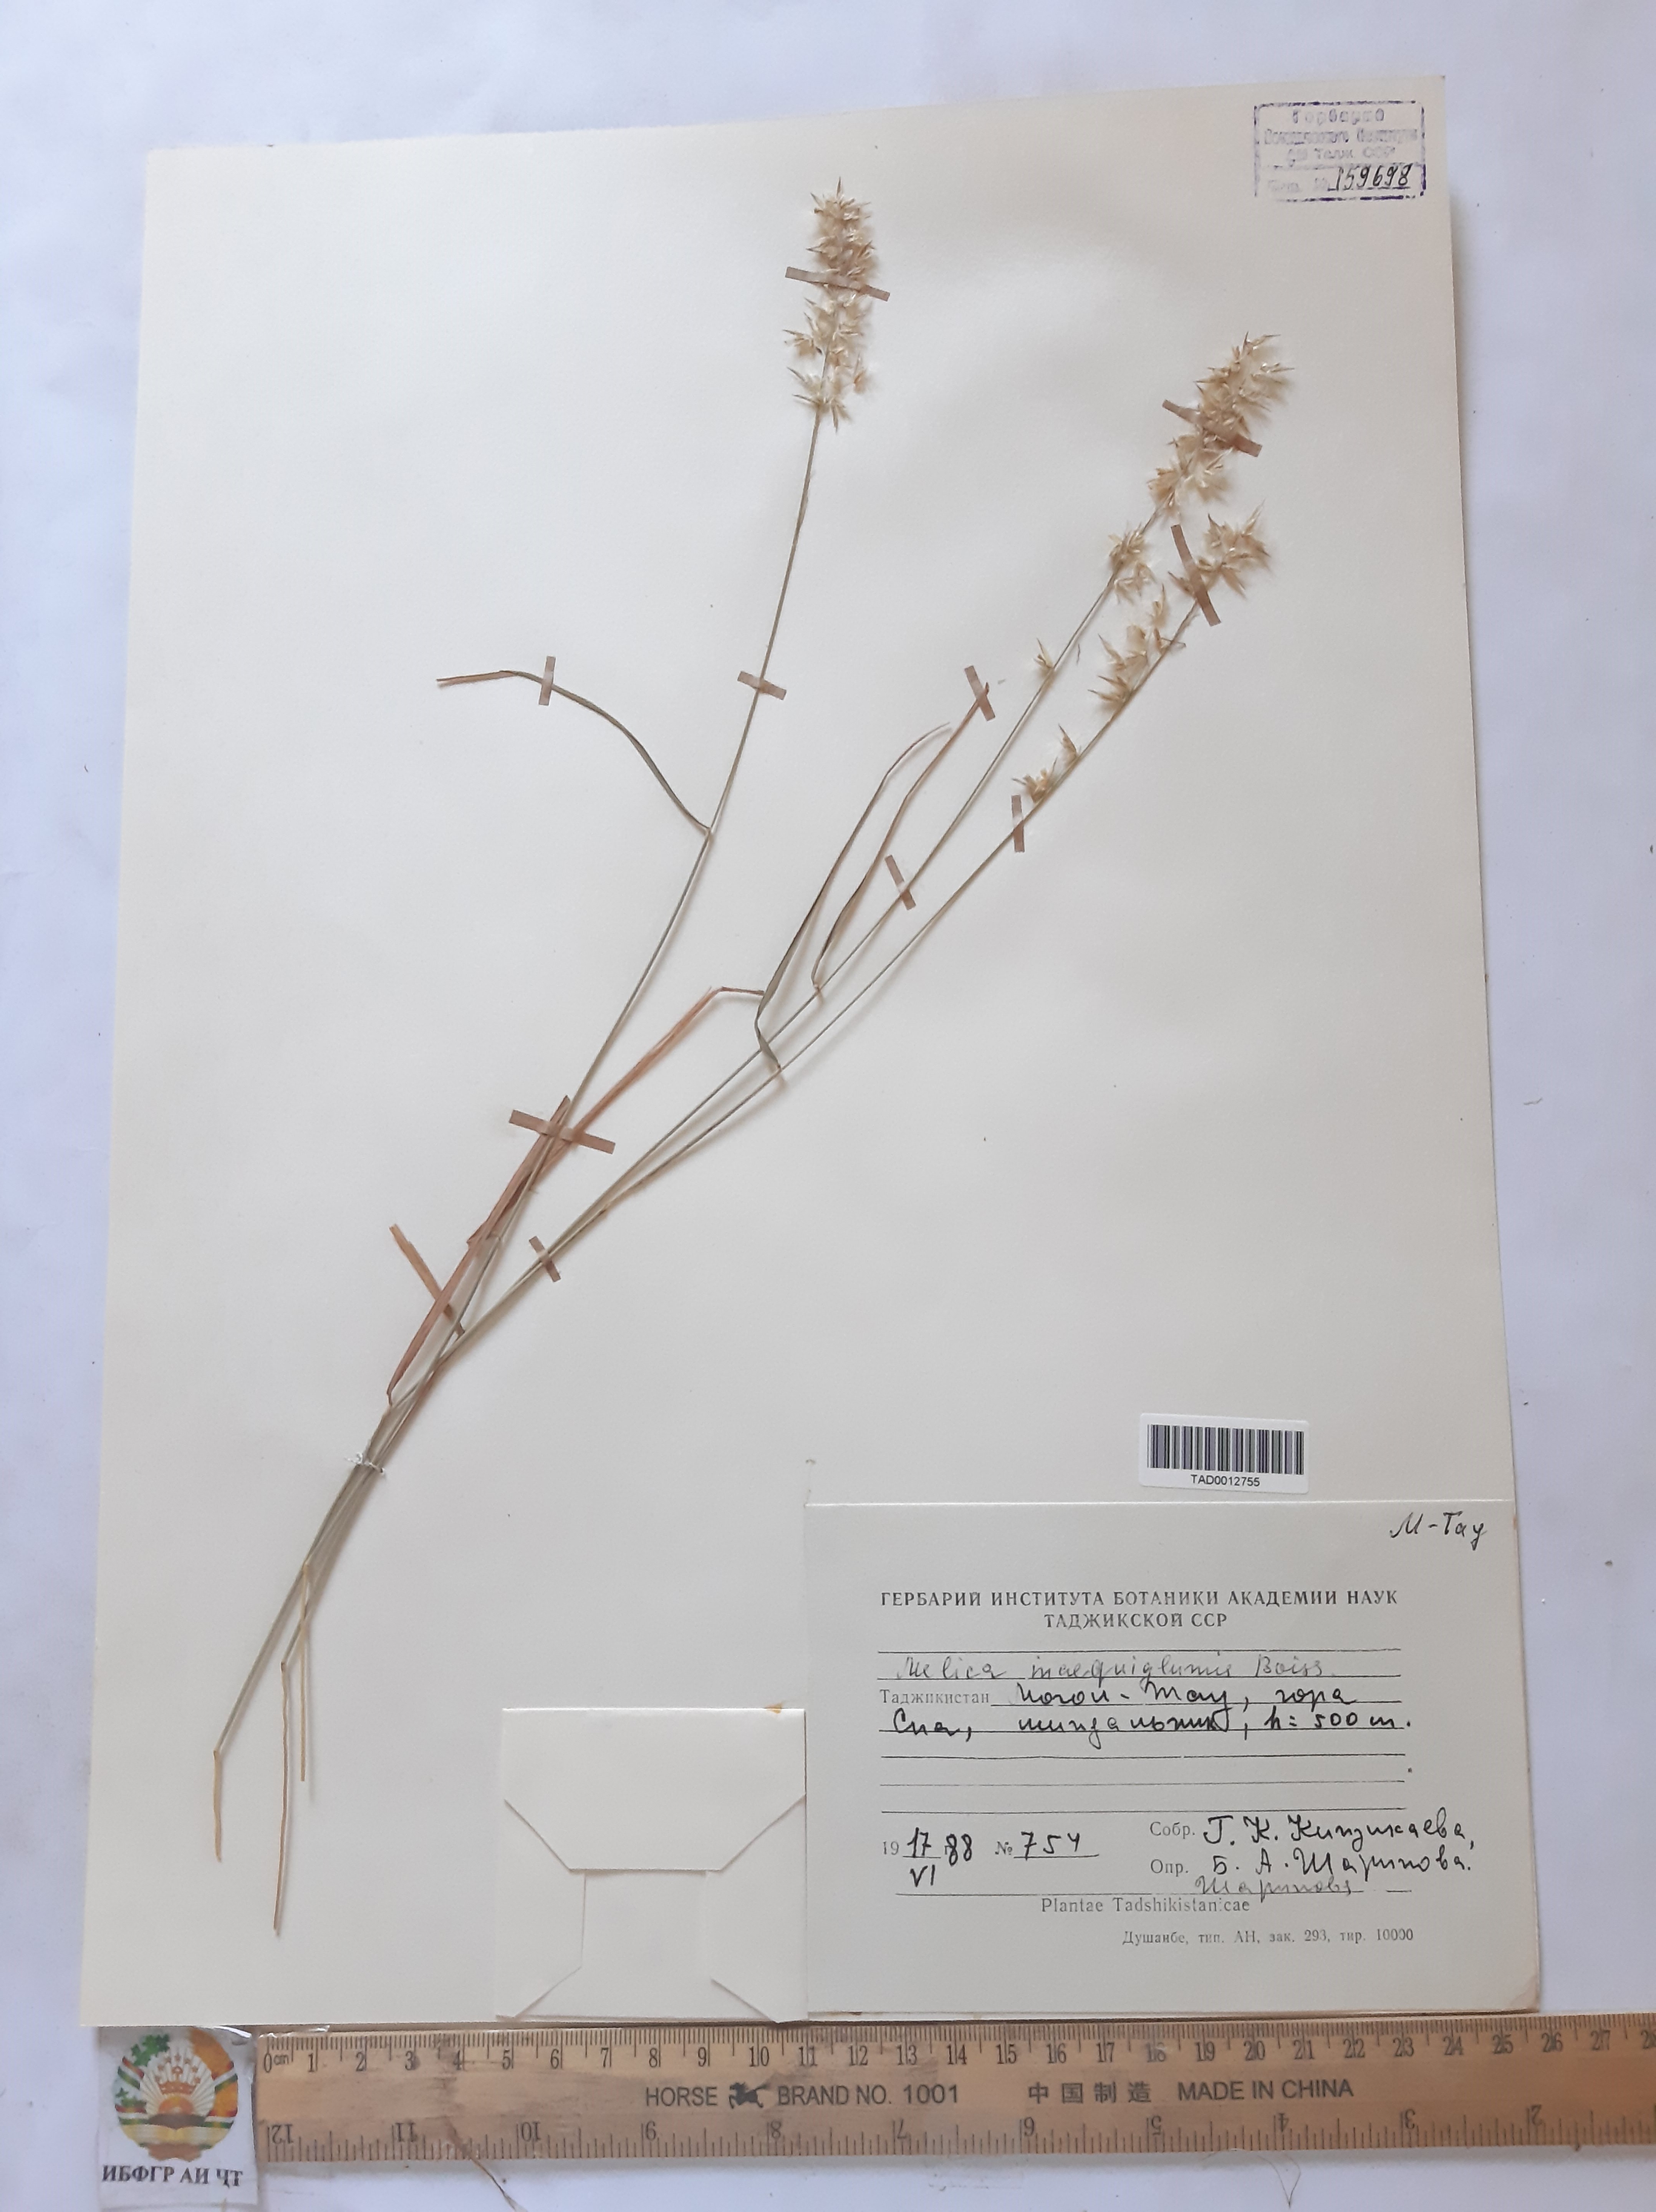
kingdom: Plantae
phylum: Tracheophyta
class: Liliopsida
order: Poales
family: Poaceae
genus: Melica
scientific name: Melica persica
